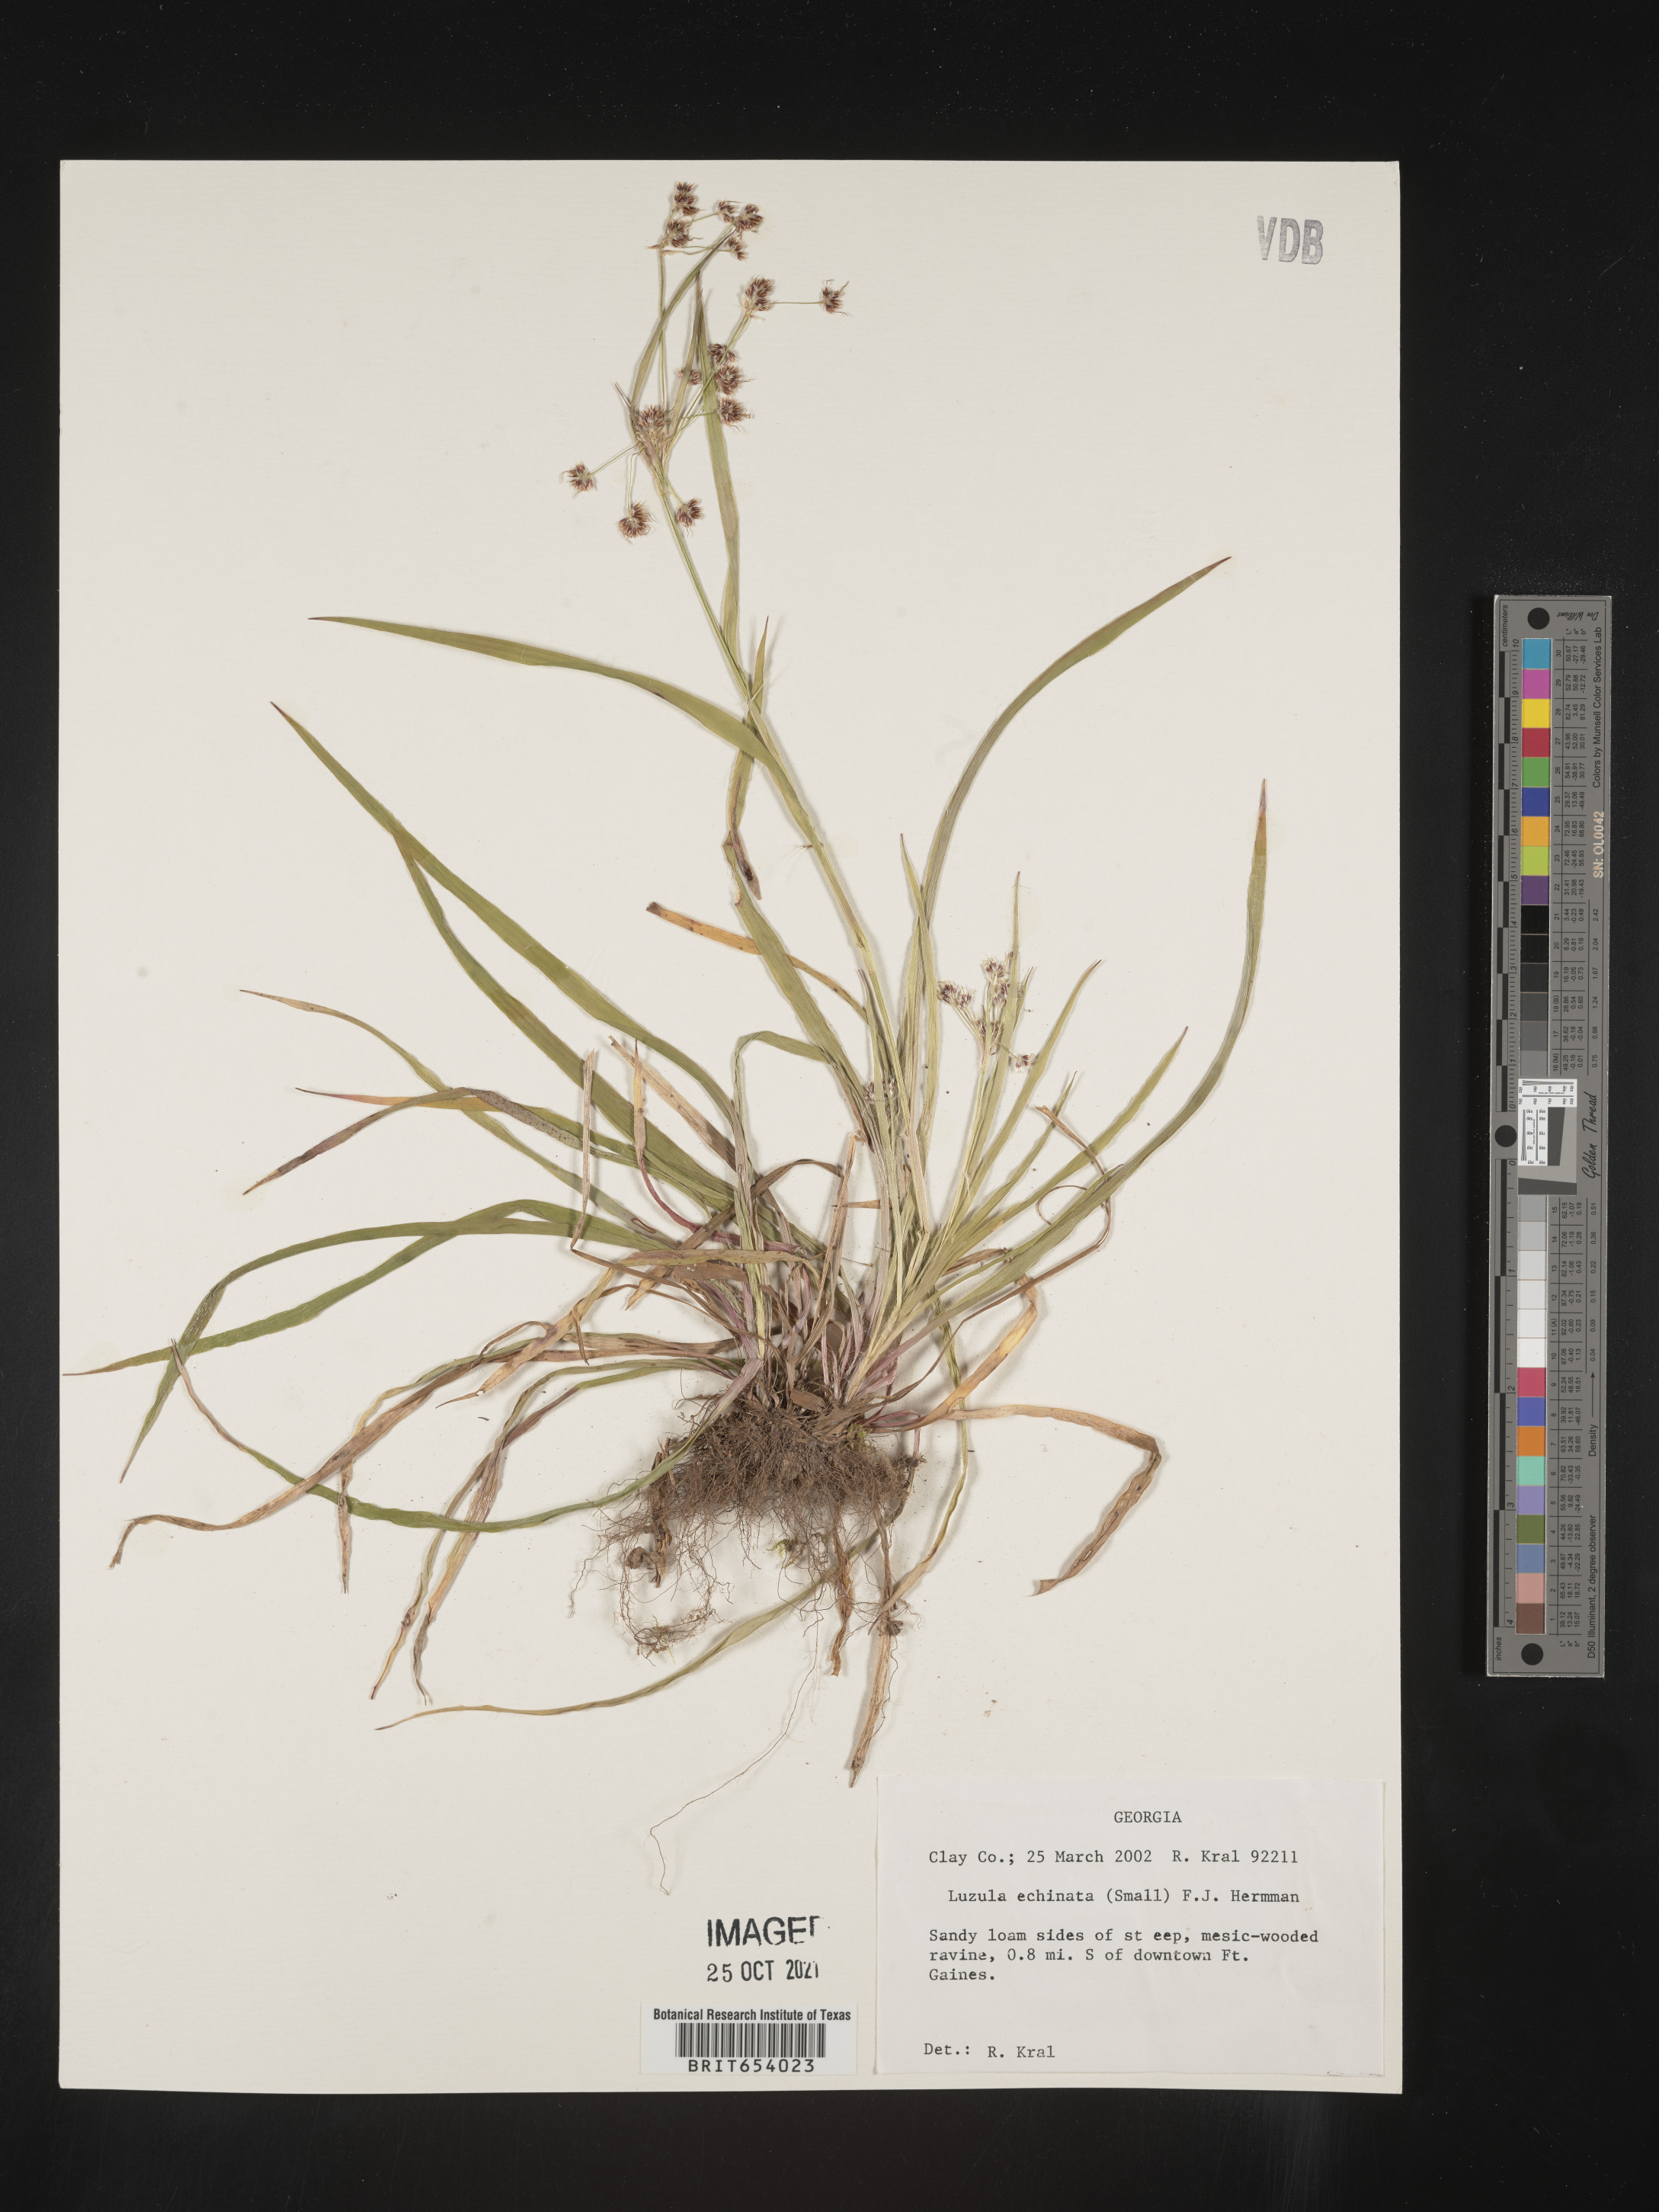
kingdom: Plantae
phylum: Tracheophyta
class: Liliopsida
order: Poales
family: Juncaceae
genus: Luzula
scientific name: Luzula echinata
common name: Hedgehog woodrush
